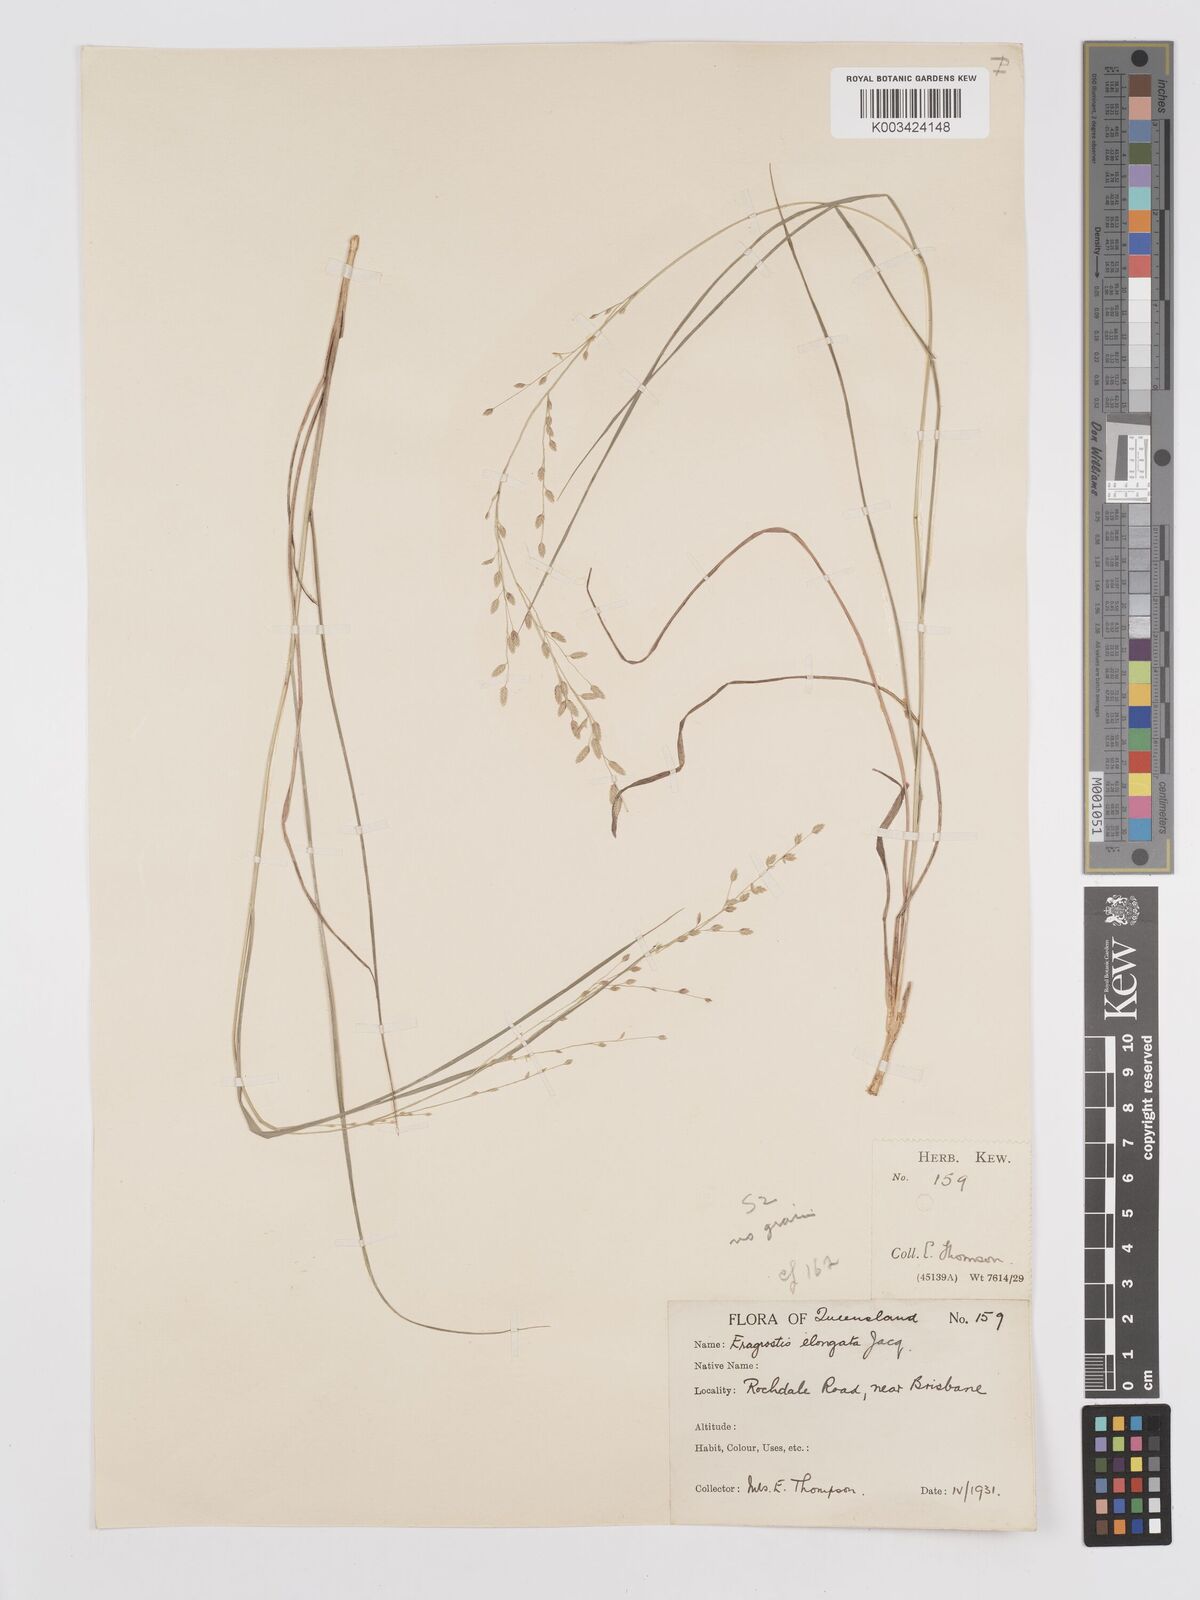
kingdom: Plantae
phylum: Tracheophyta
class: Liliopsida
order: Poales
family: Poaceae
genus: Eragrostis
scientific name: Eragrostis brownii
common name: Lovegrass
